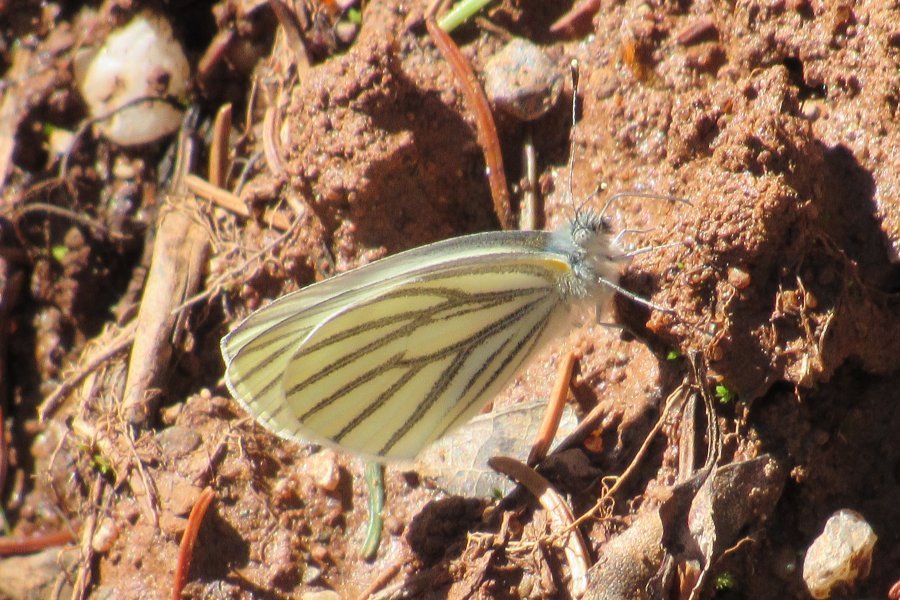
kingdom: Animalia
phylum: Arthropoda
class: Insecta
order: Lepidoptera
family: Pieridae
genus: Pieris
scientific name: Pieris oleracea
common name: Mustard White
